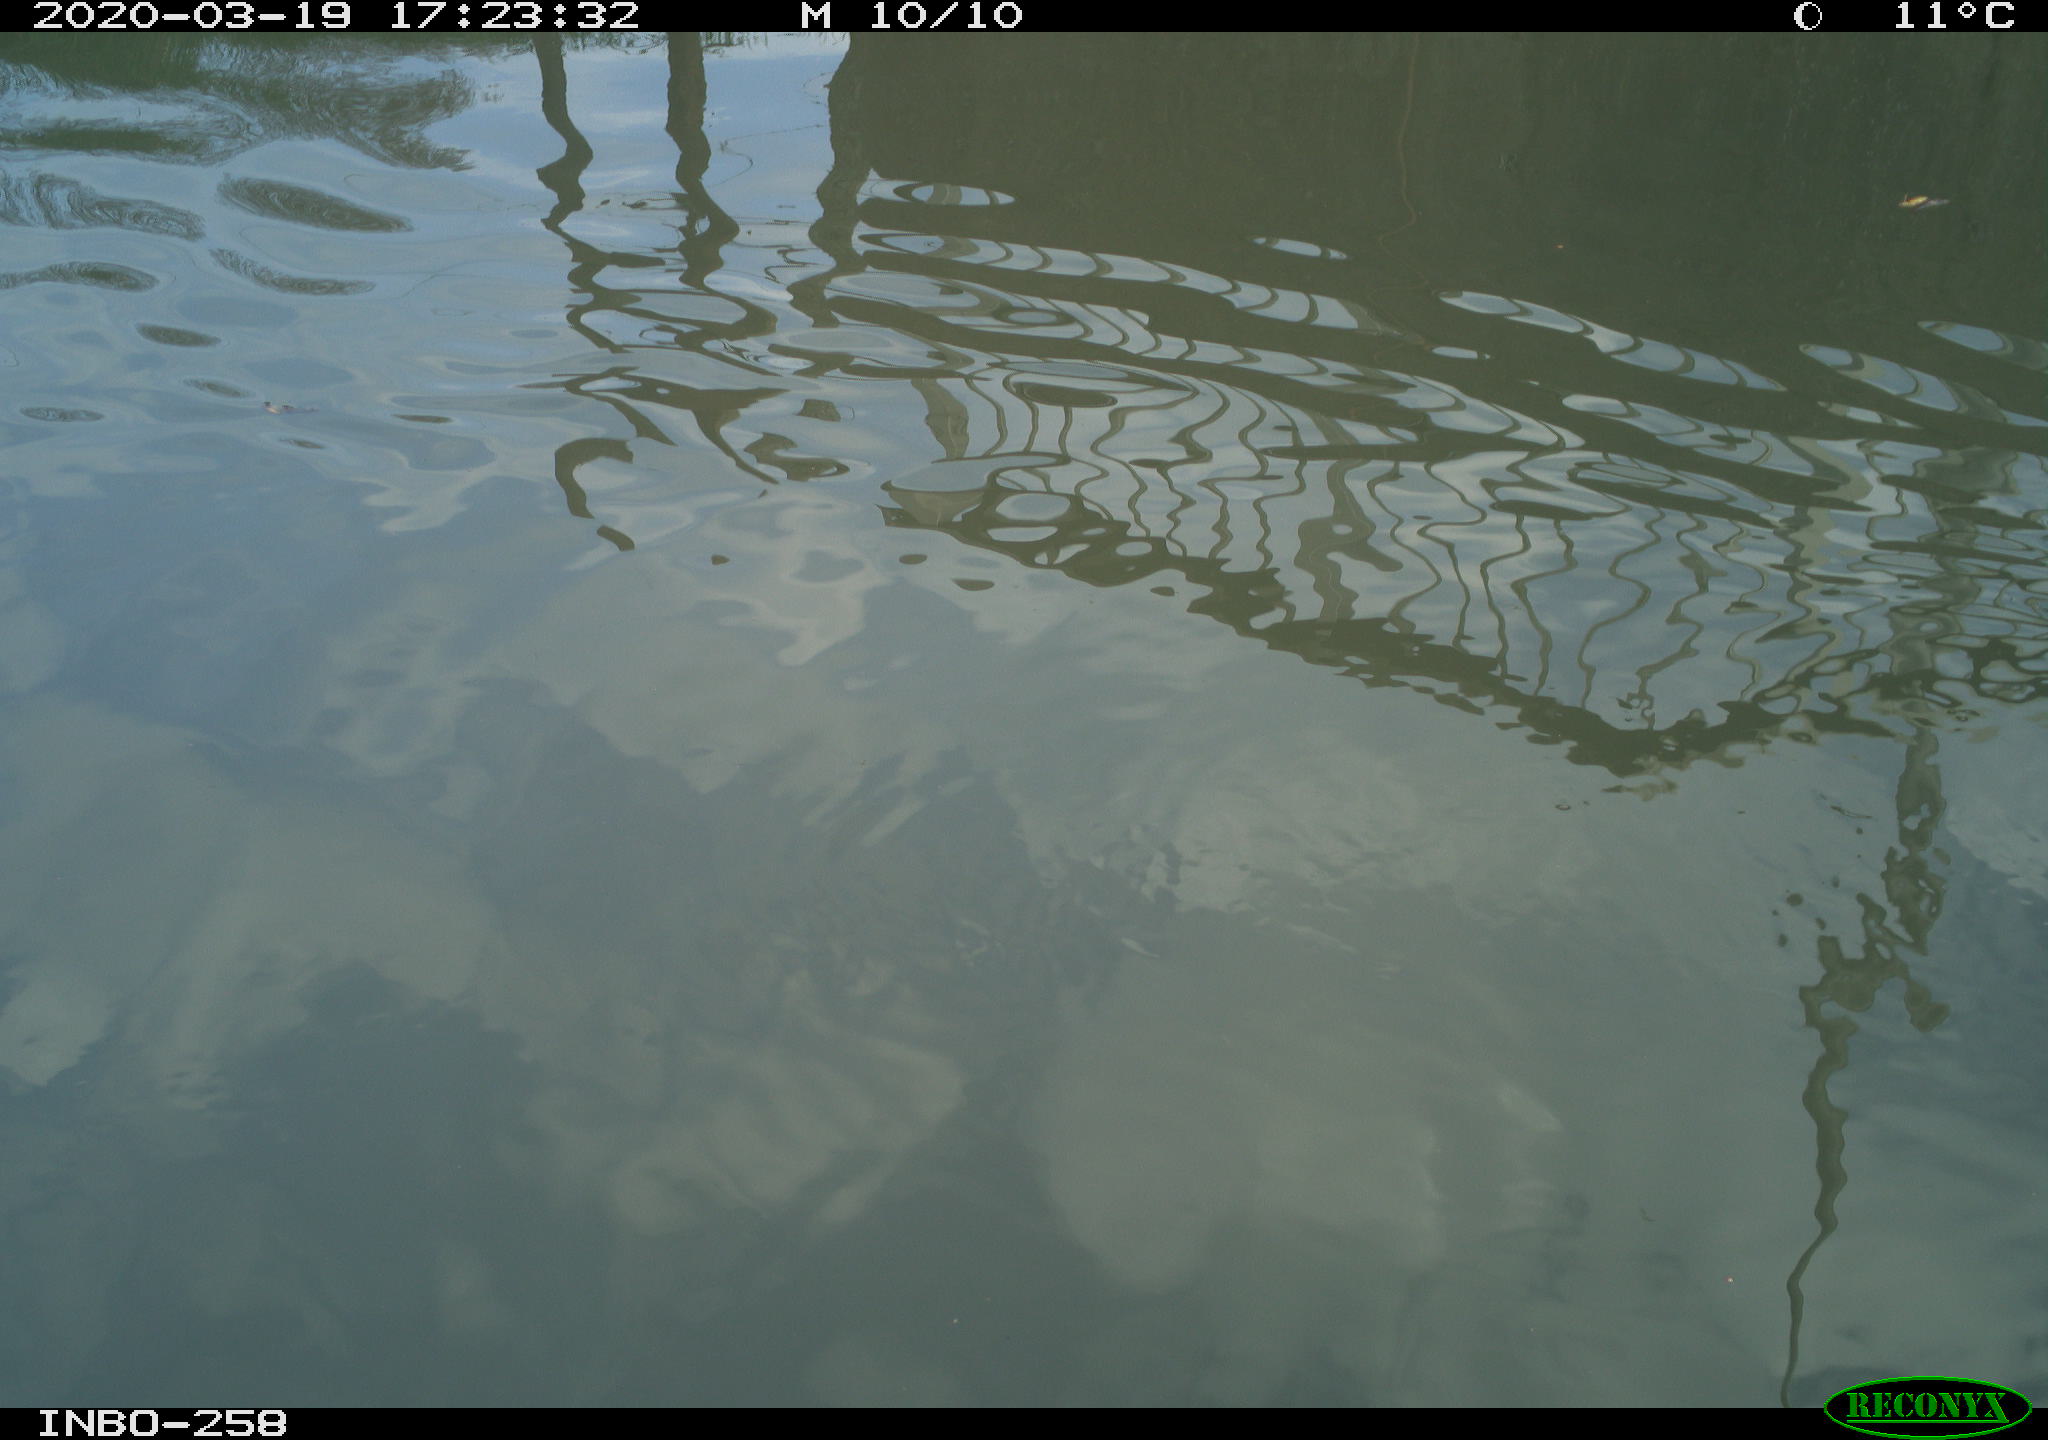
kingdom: Animalia
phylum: Chordata
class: Aves
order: Anseriformes
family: Anatidae
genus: Anas
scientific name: Anas platyrhynchos
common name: Mallard
